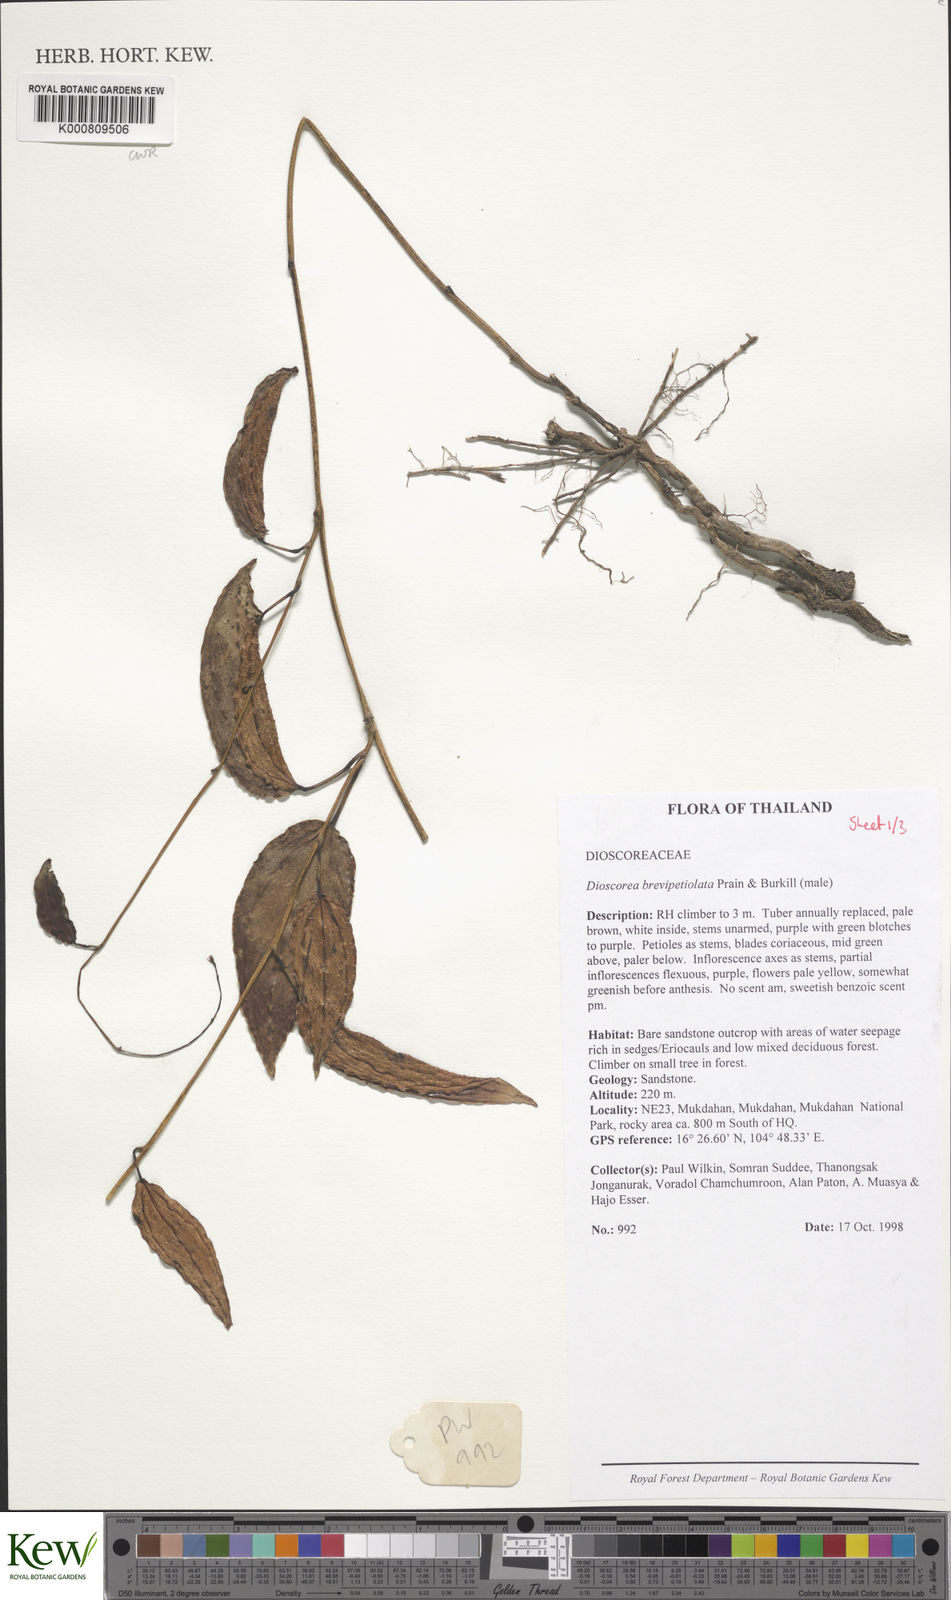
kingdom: Plantae
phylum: Tracheophyta
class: Liliopsida
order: Dioscoreales
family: Dioscoreaceae
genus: Dioscorea
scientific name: Dioscorea brevipetiolata
